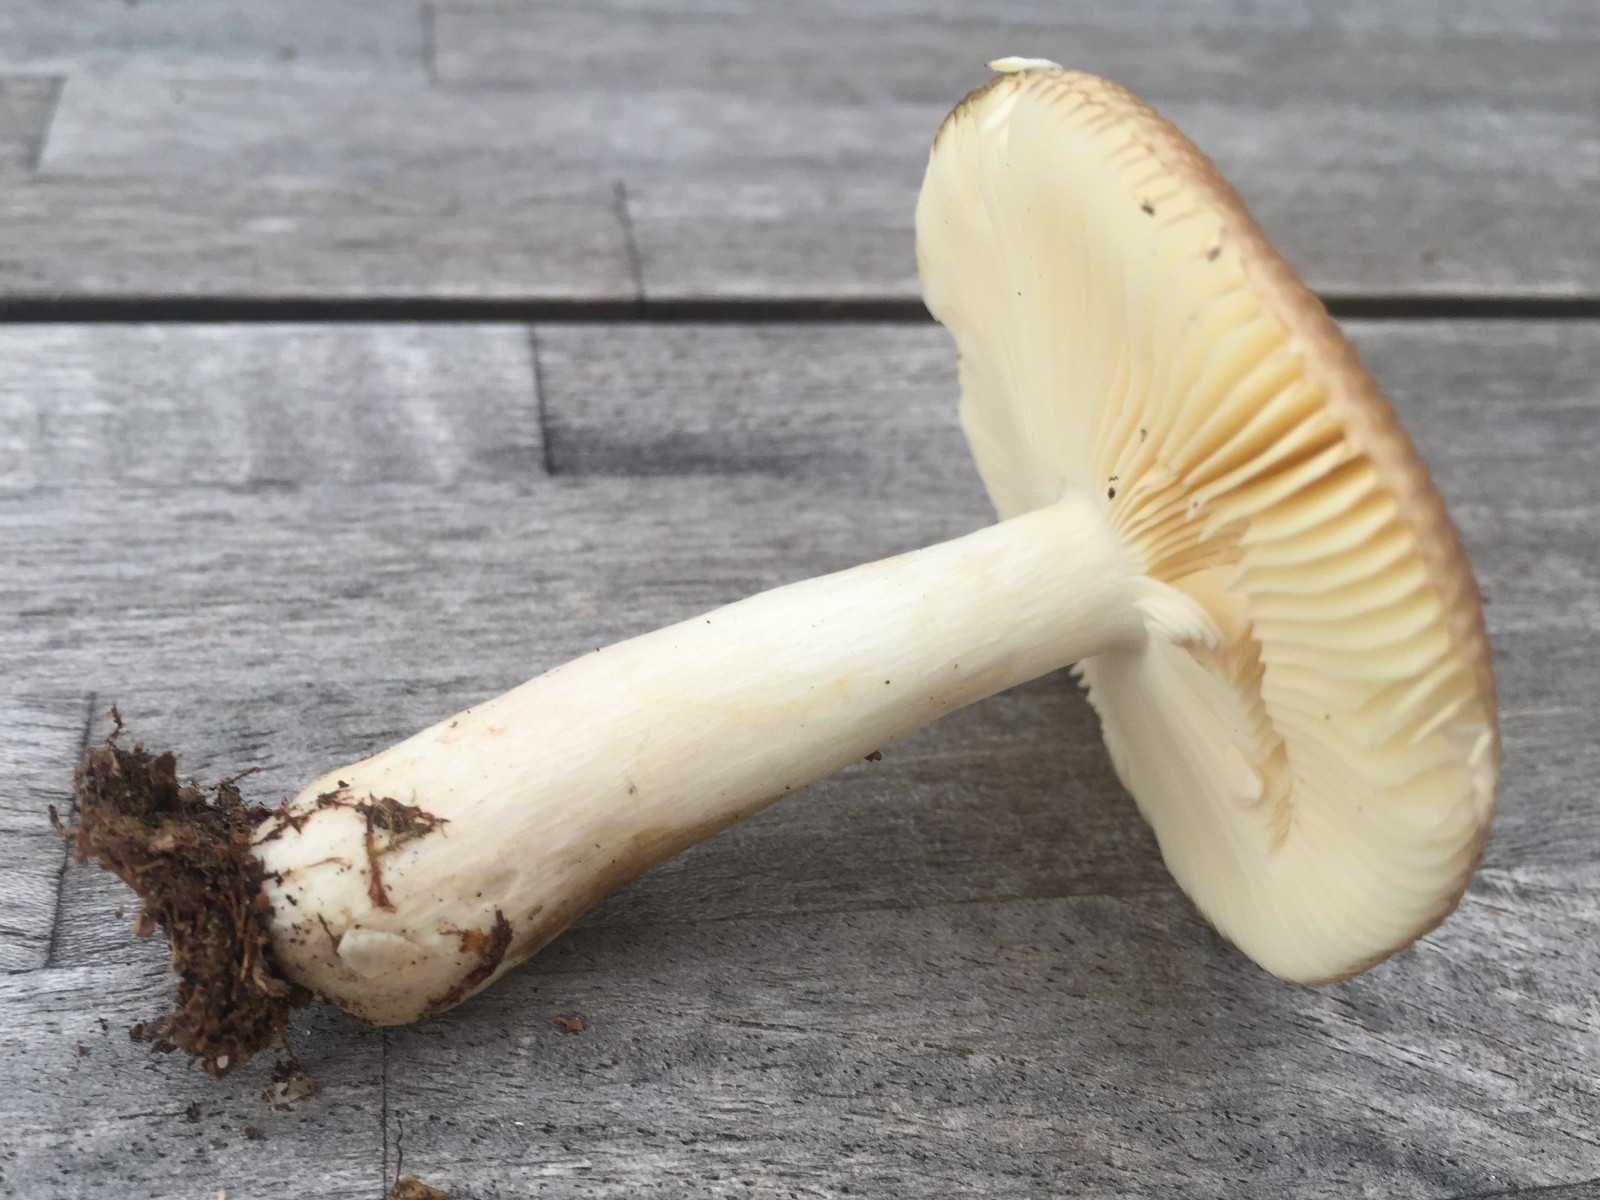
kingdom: Fungi
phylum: Basidiomycota
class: Agaricomycetes
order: Russulales
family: Russulaceae
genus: Russula
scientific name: Russula puellaris
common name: gulstokket skørhat
